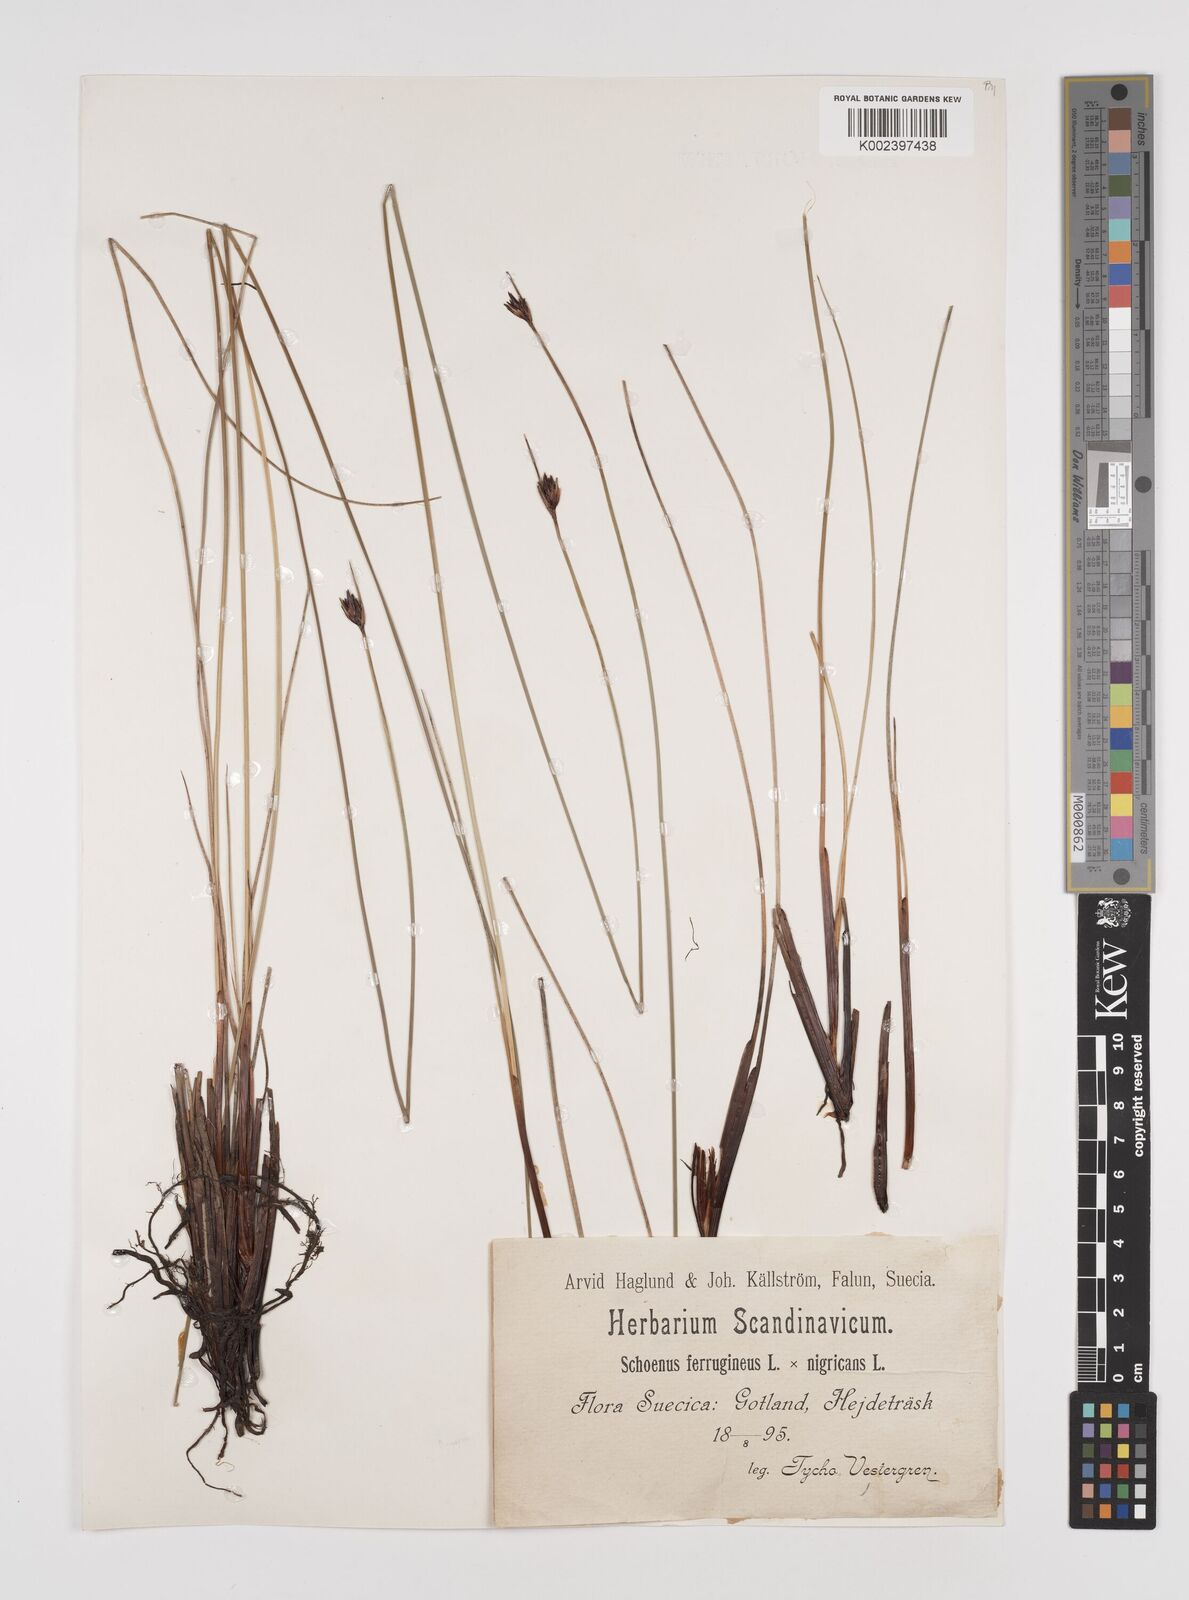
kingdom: Plantae
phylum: Tracheophyta
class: Liliopsida
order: Poales
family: Cyperaceae
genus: Schoenus
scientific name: Schoenus ferrugineus
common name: Brown bog-rush
